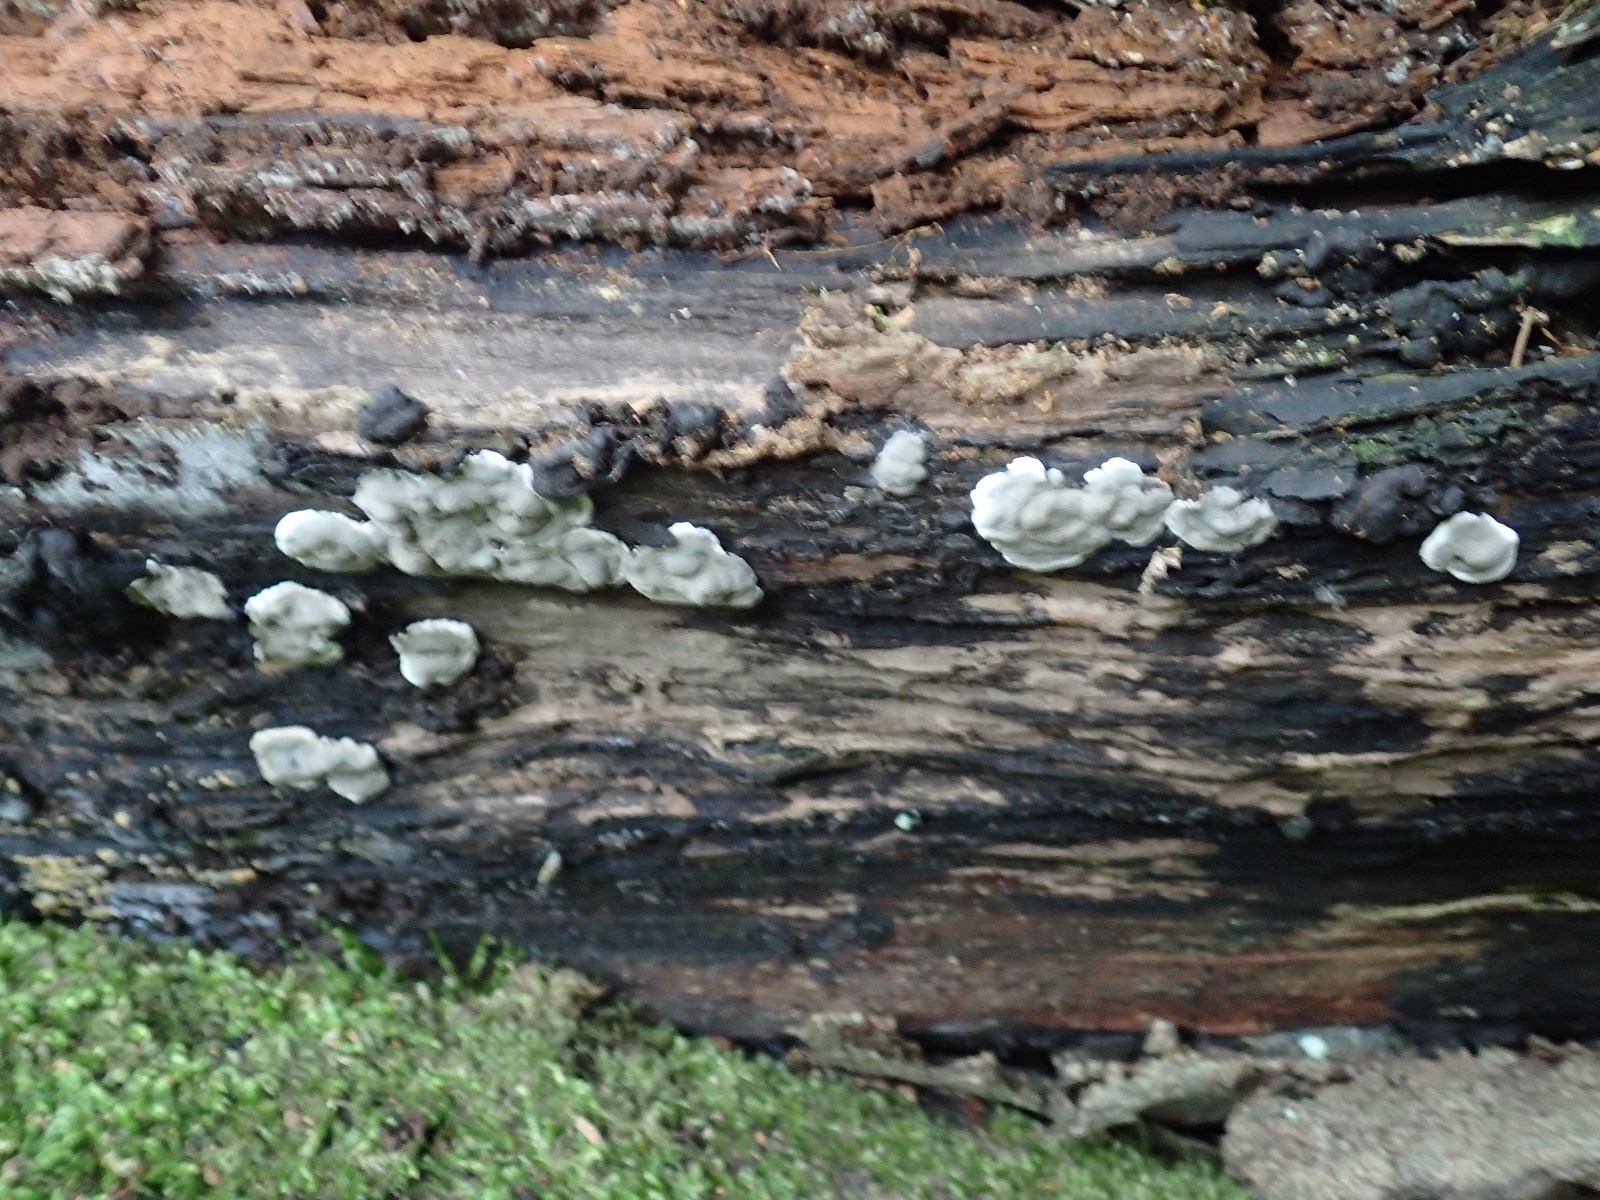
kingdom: Fungi
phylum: Ascomycota
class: Sordariomycetes
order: Xylariales
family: Xylariaceae
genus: Kretzschmaria
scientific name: Kretzschmaria deusta
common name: stor kulsvamp
